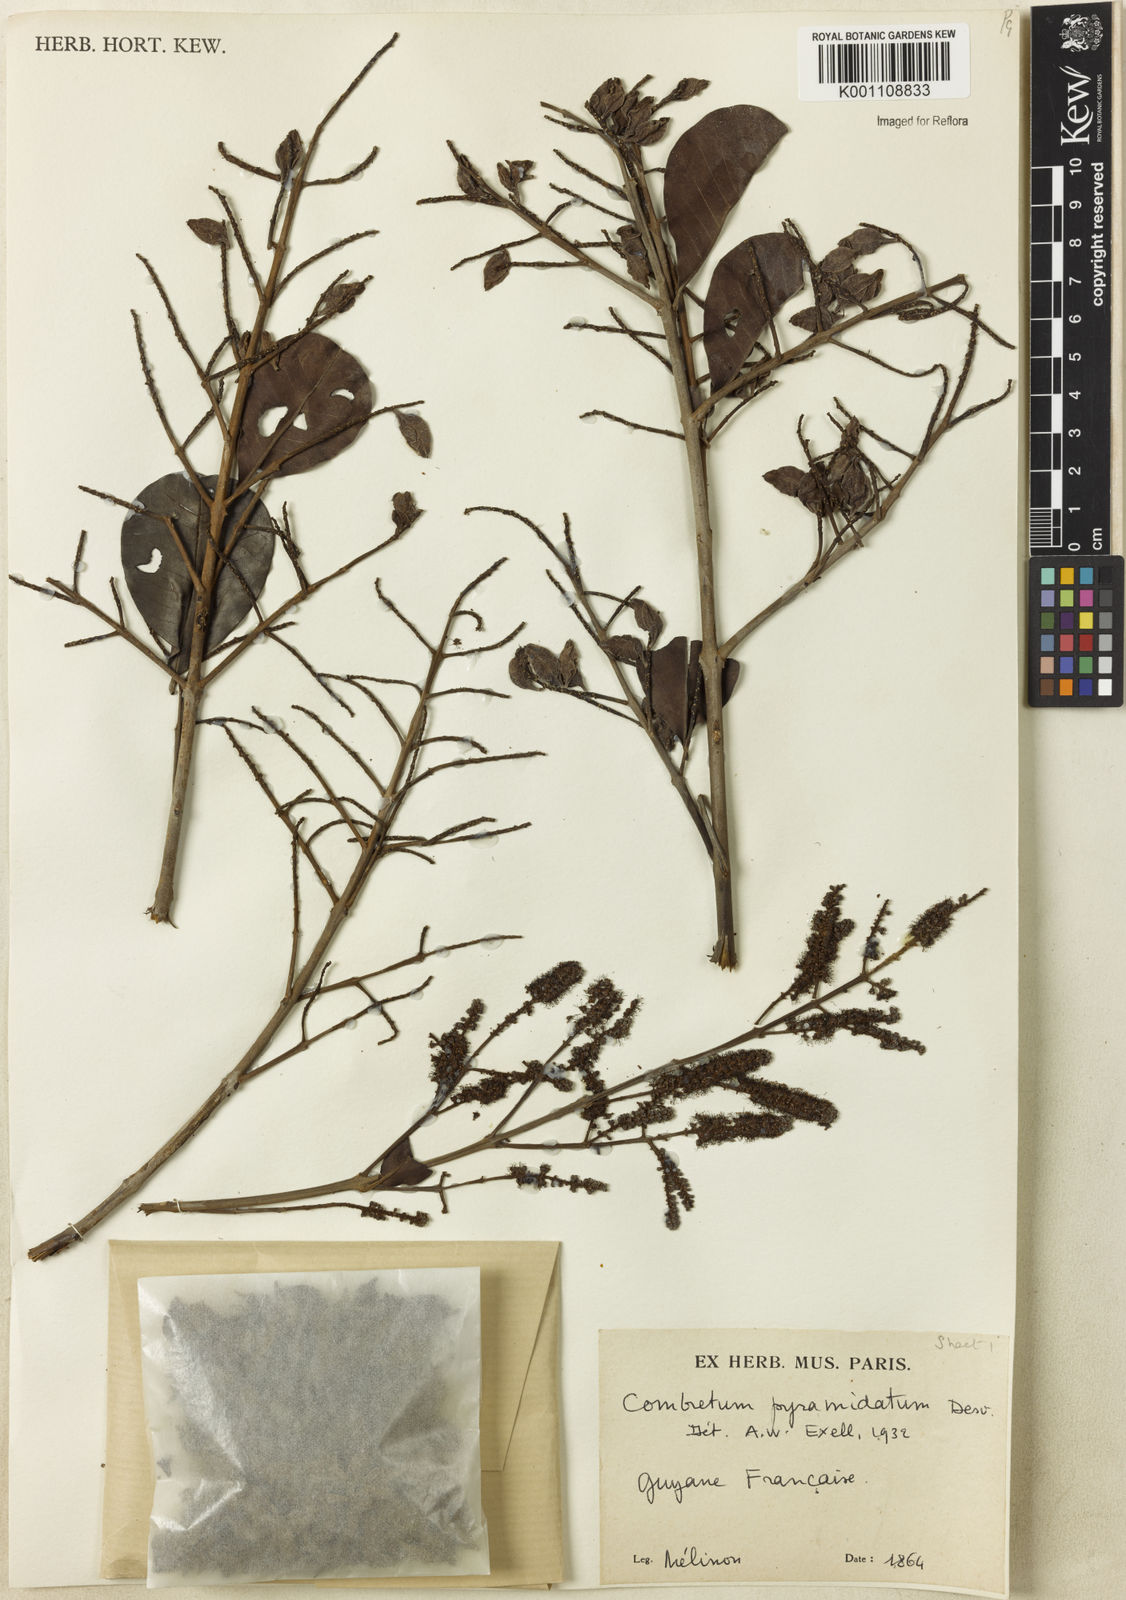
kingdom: Plantae
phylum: Tracheophyta
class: Magnoliopsida
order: Myrtales
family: Combretaceae
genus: Combretum
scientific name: Combretum pyramidatum
